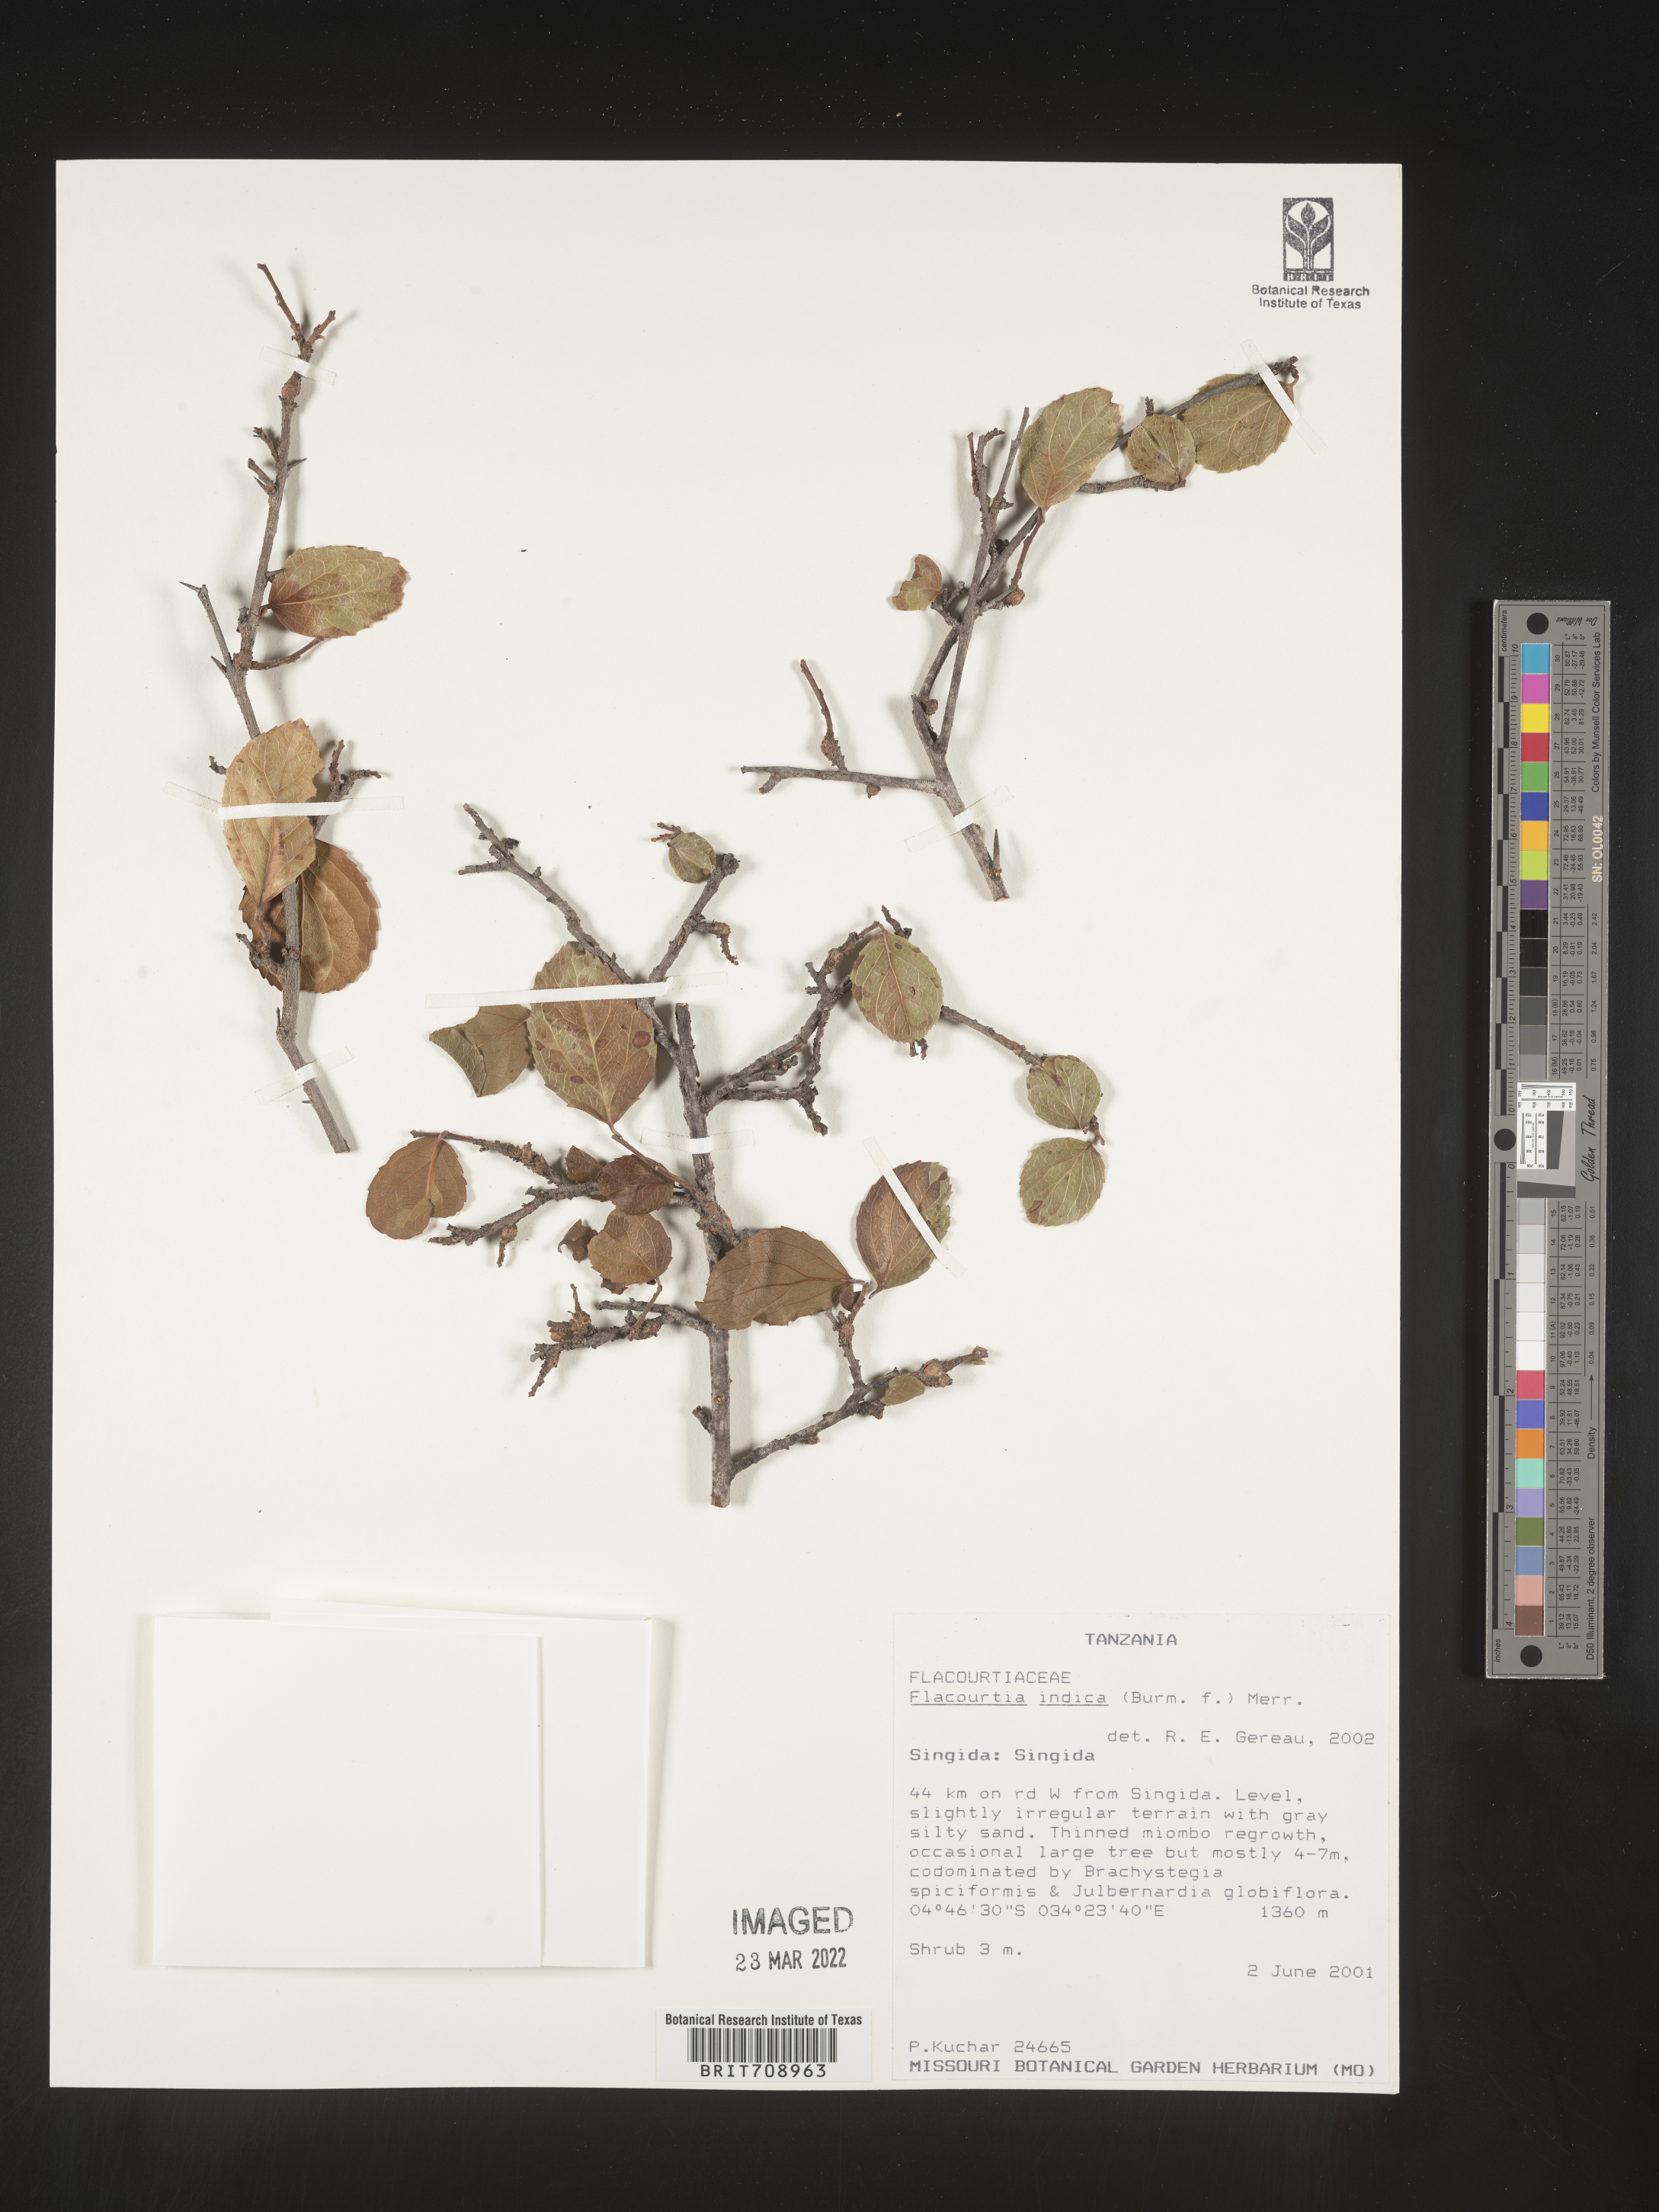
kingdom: Plantae
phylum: Tracheophyta
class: Magnoliopsida
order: Malpighiales
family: Salicaceae
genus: Flacourtia
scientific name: Flacourtia
